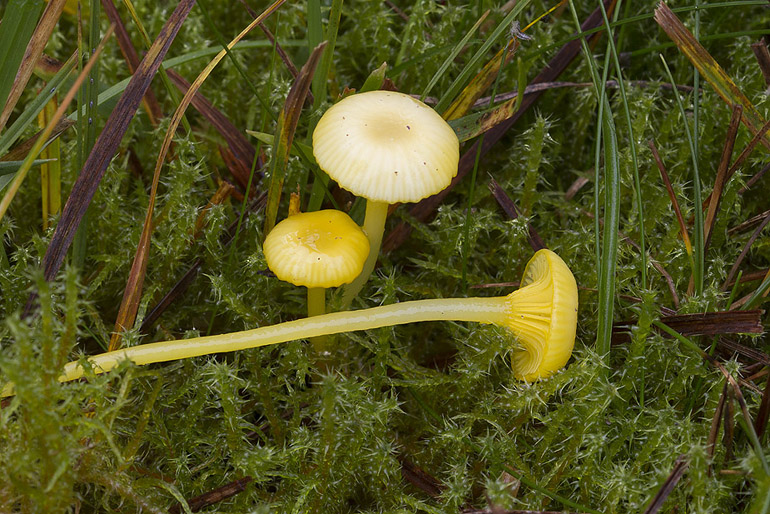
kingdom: Fungi
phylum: Basidiomycota
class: Agaricomycetes
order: Agaricales
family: Hygrophoraceae
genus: Gloioxanthomyces
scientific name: Gloioxanthomyces vitellinus
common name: kromgul vokshat
